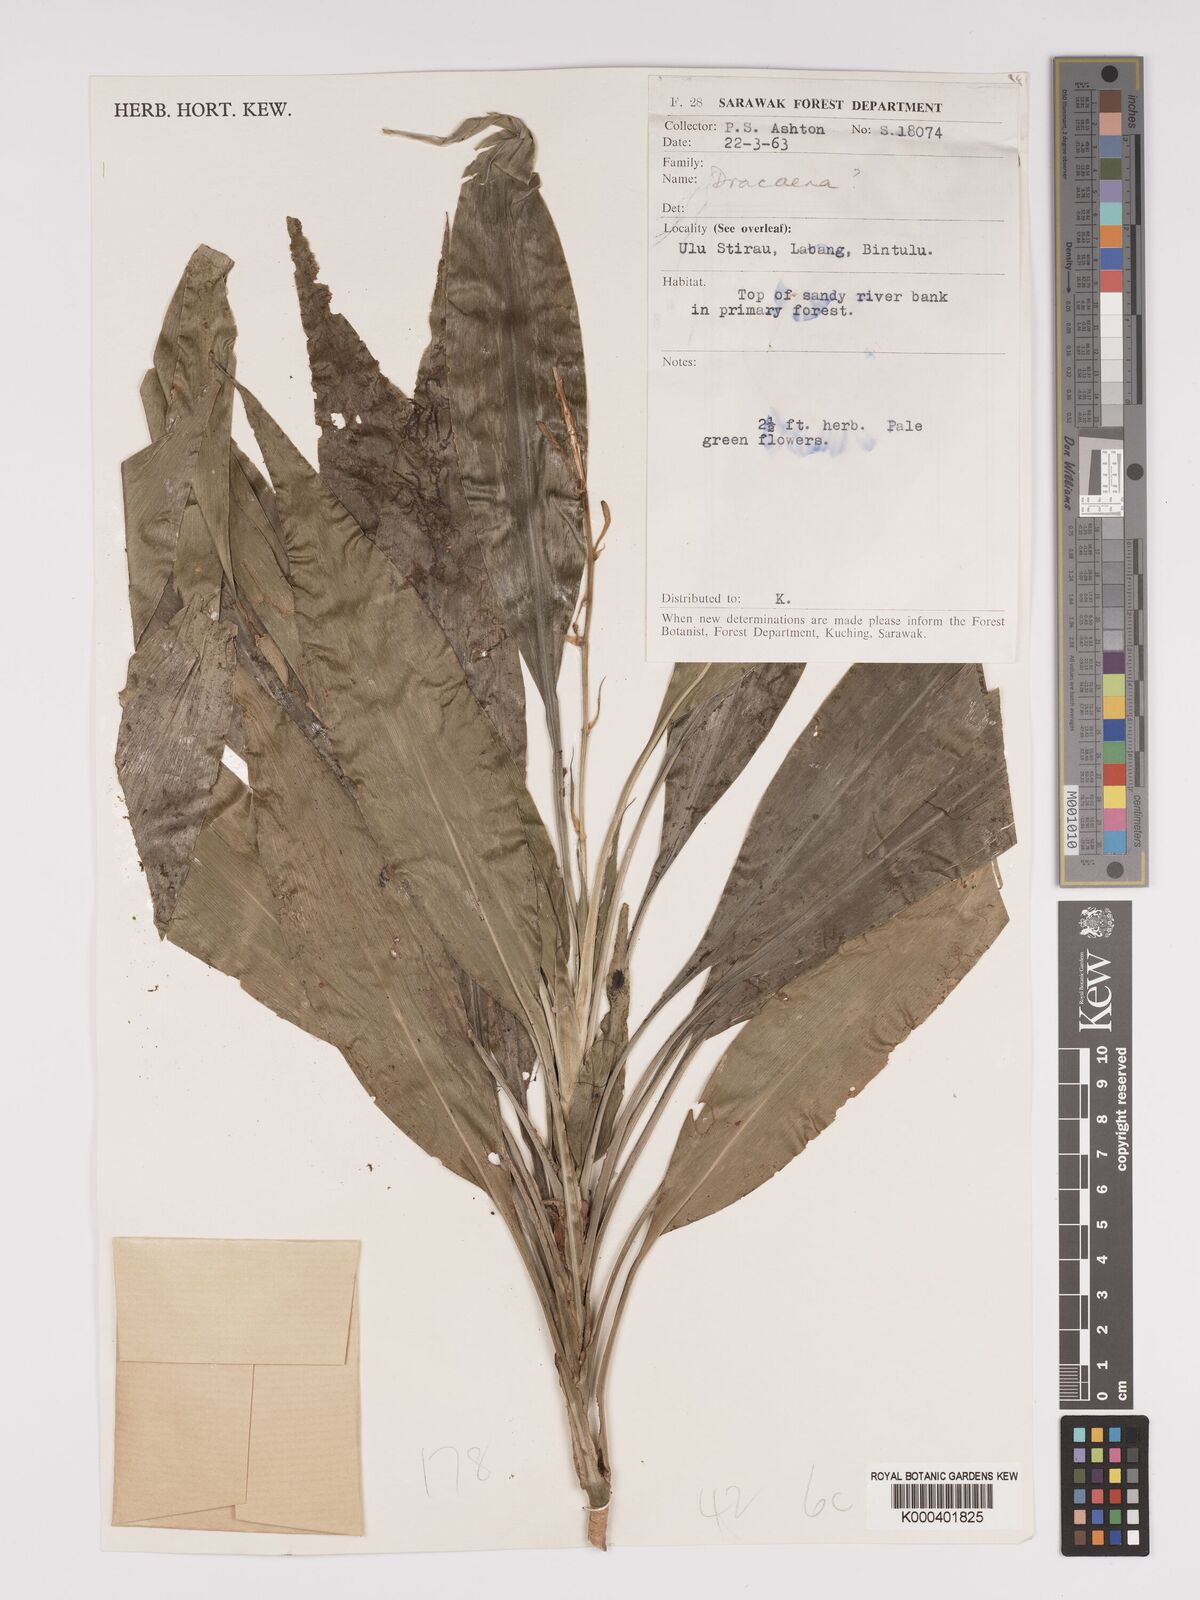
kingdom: Plantae
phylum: Tracheophyta
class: Liliopsida
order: Asparagales
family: Asparagaceae
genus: Dracaena
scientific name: Dracaena
